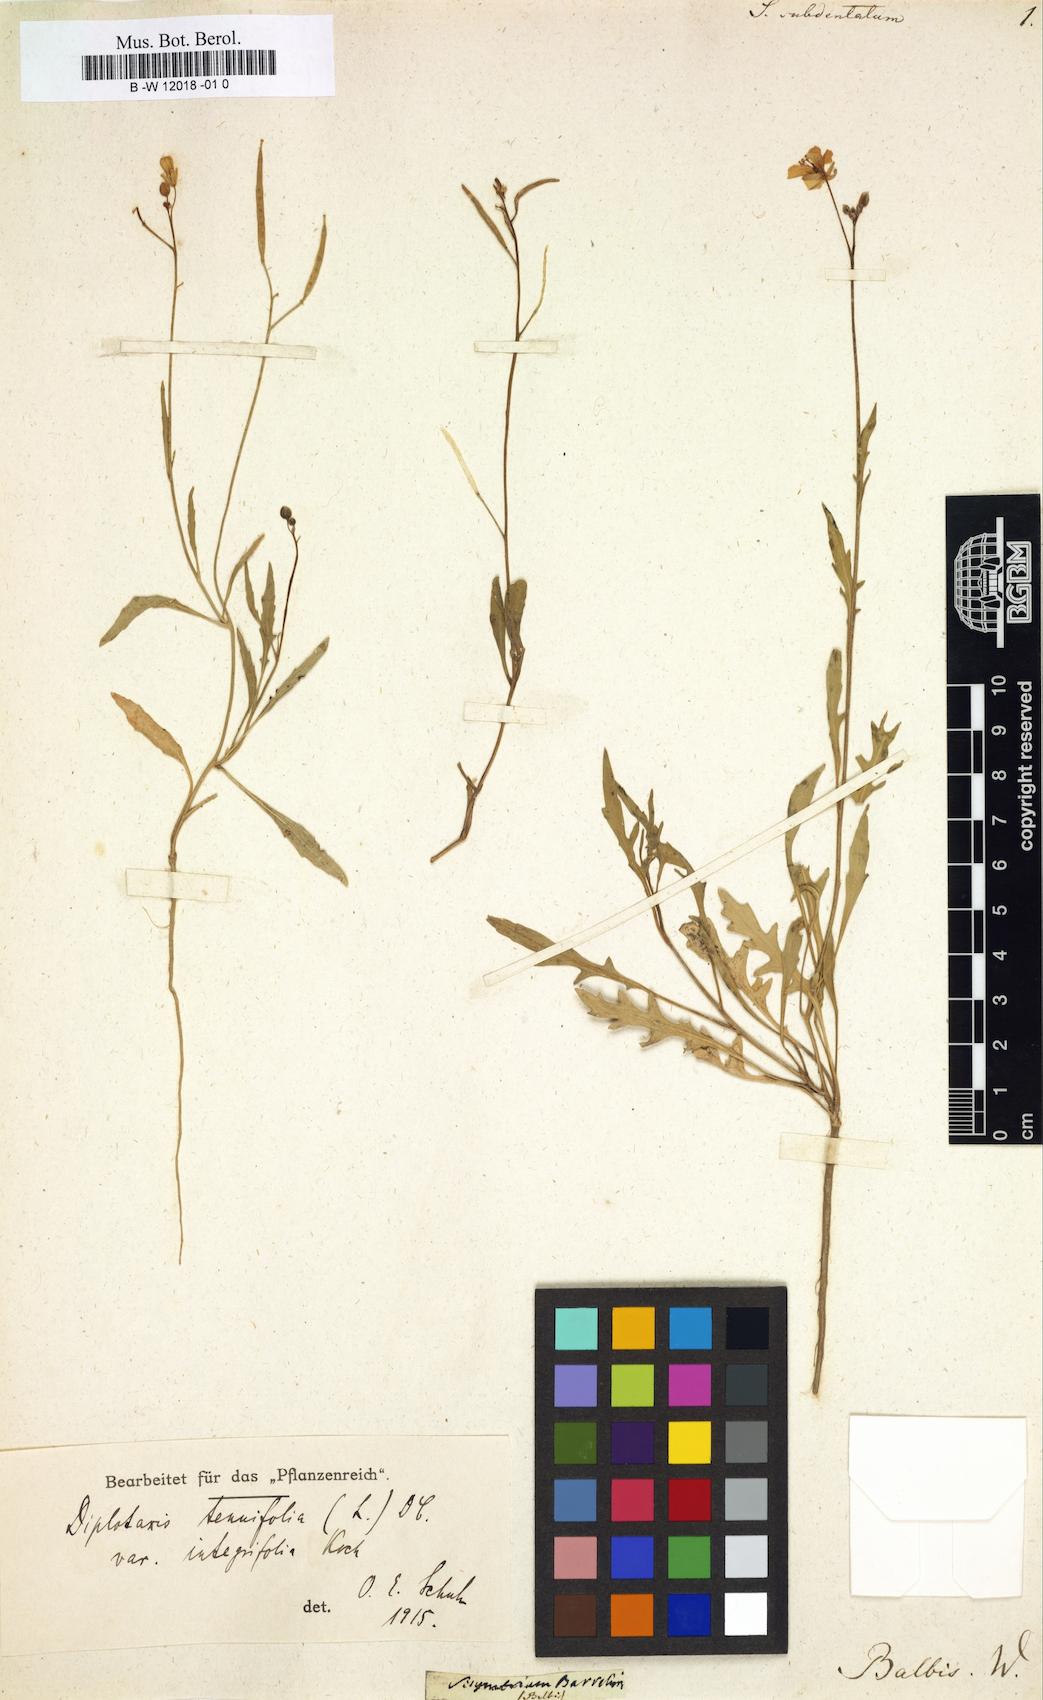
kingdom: Plantae
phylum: Tracheophyta
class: Magnoliopsida
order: Brassicales
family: Brassicaceae
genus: Sisymbrium
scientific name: Sisymbrium
